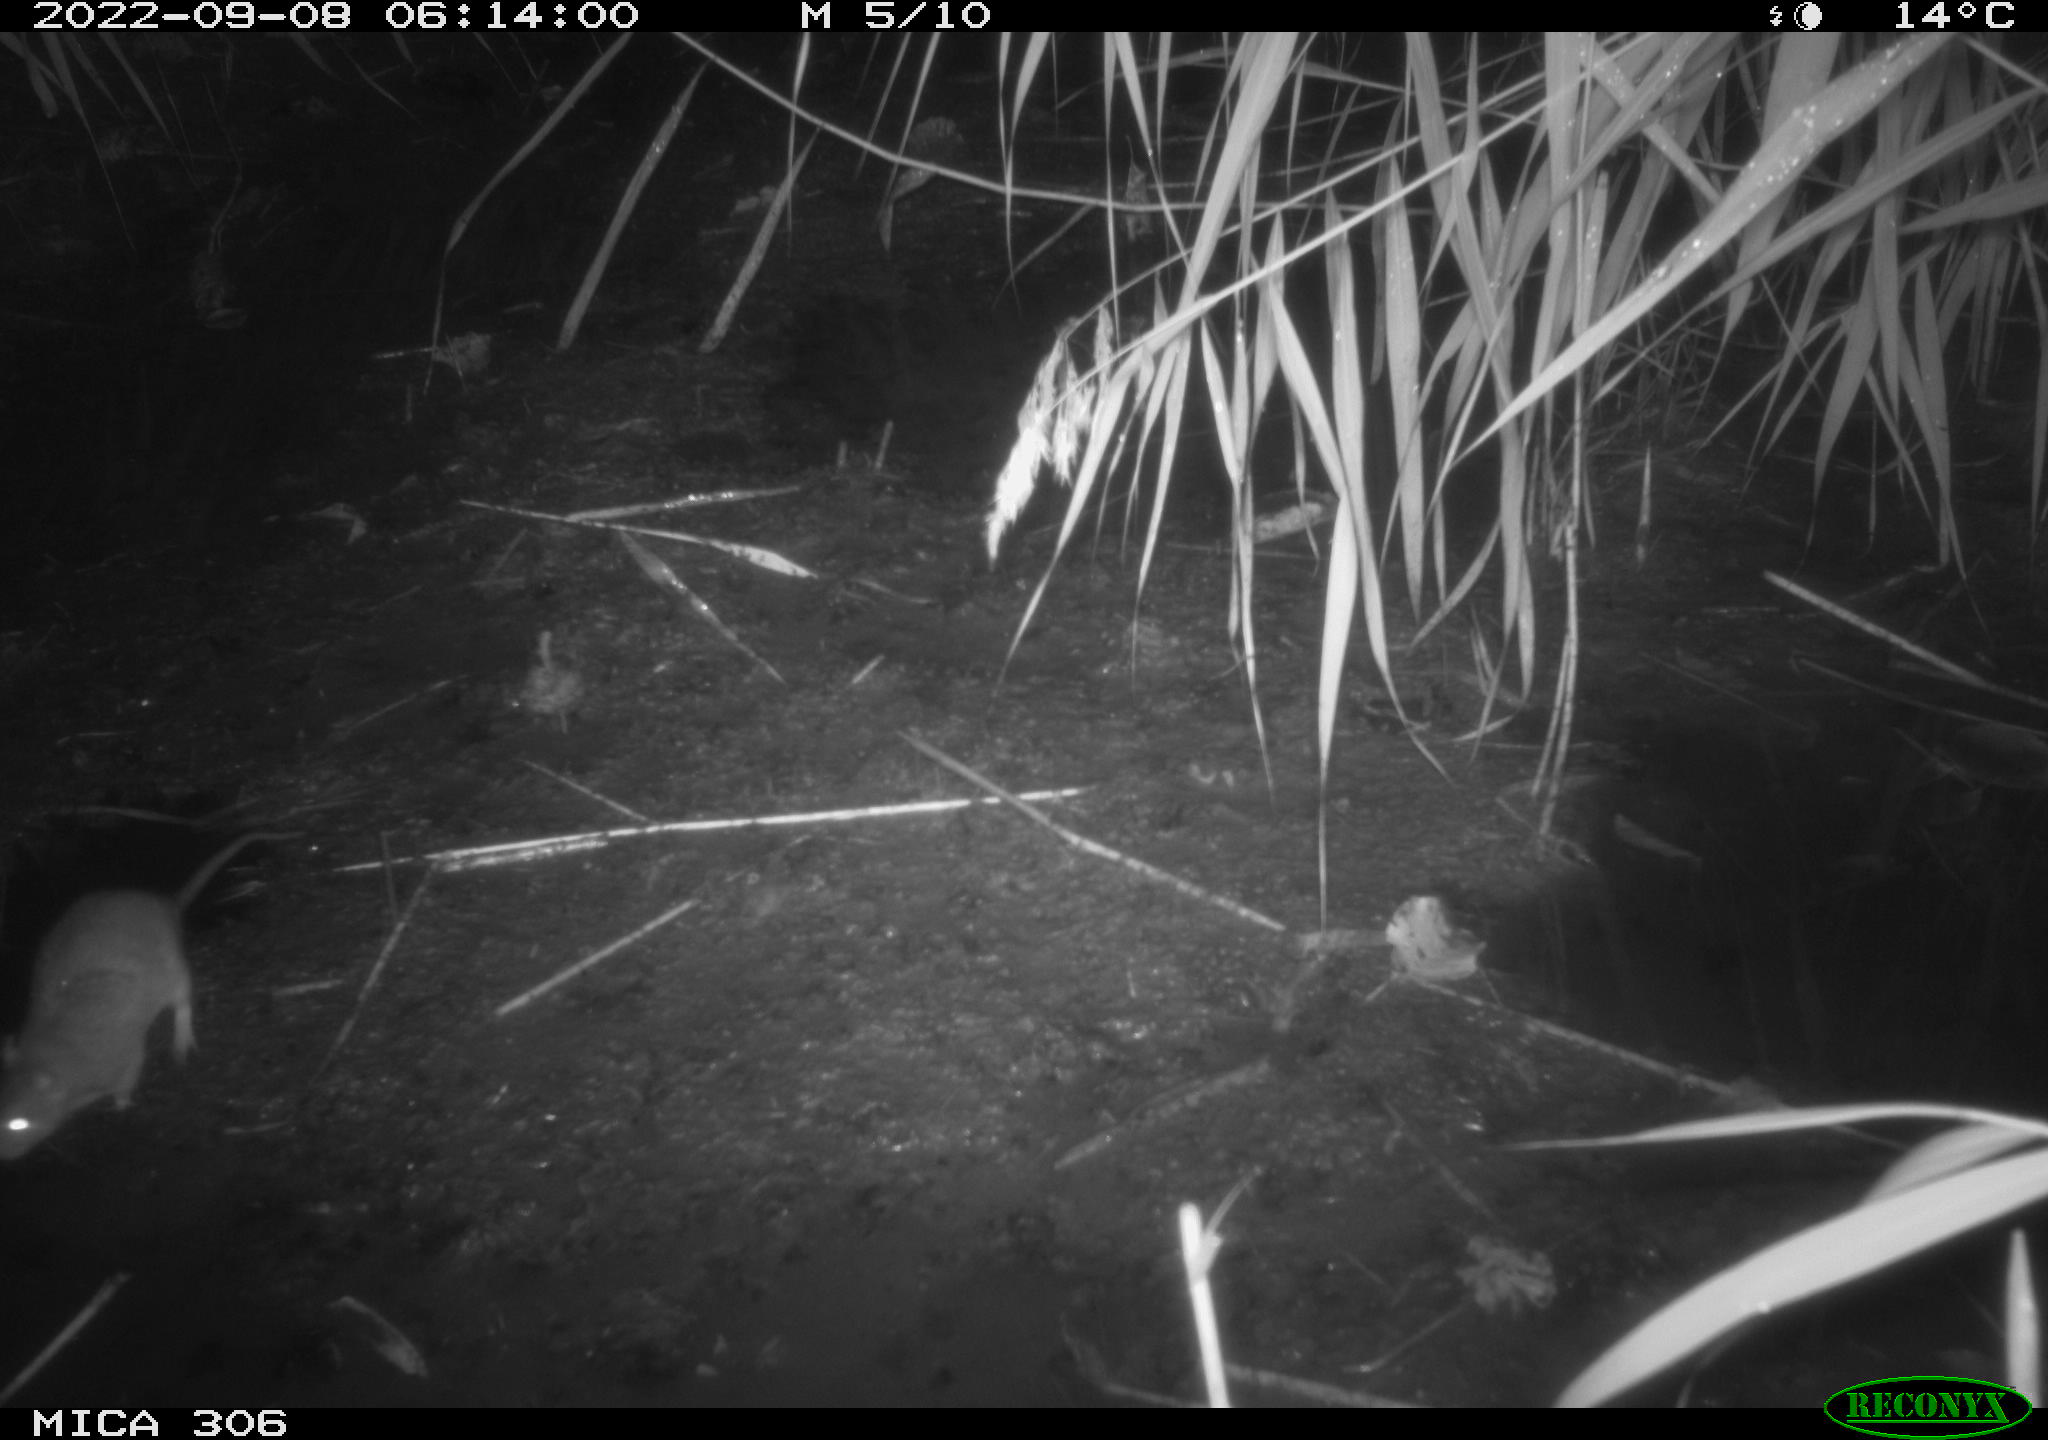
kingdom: Animalia
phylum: Chordata
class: Mammalia
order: Rodentia
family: Muridae
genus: Rattus
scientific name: Rattus norvegicus
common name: Brown rat
